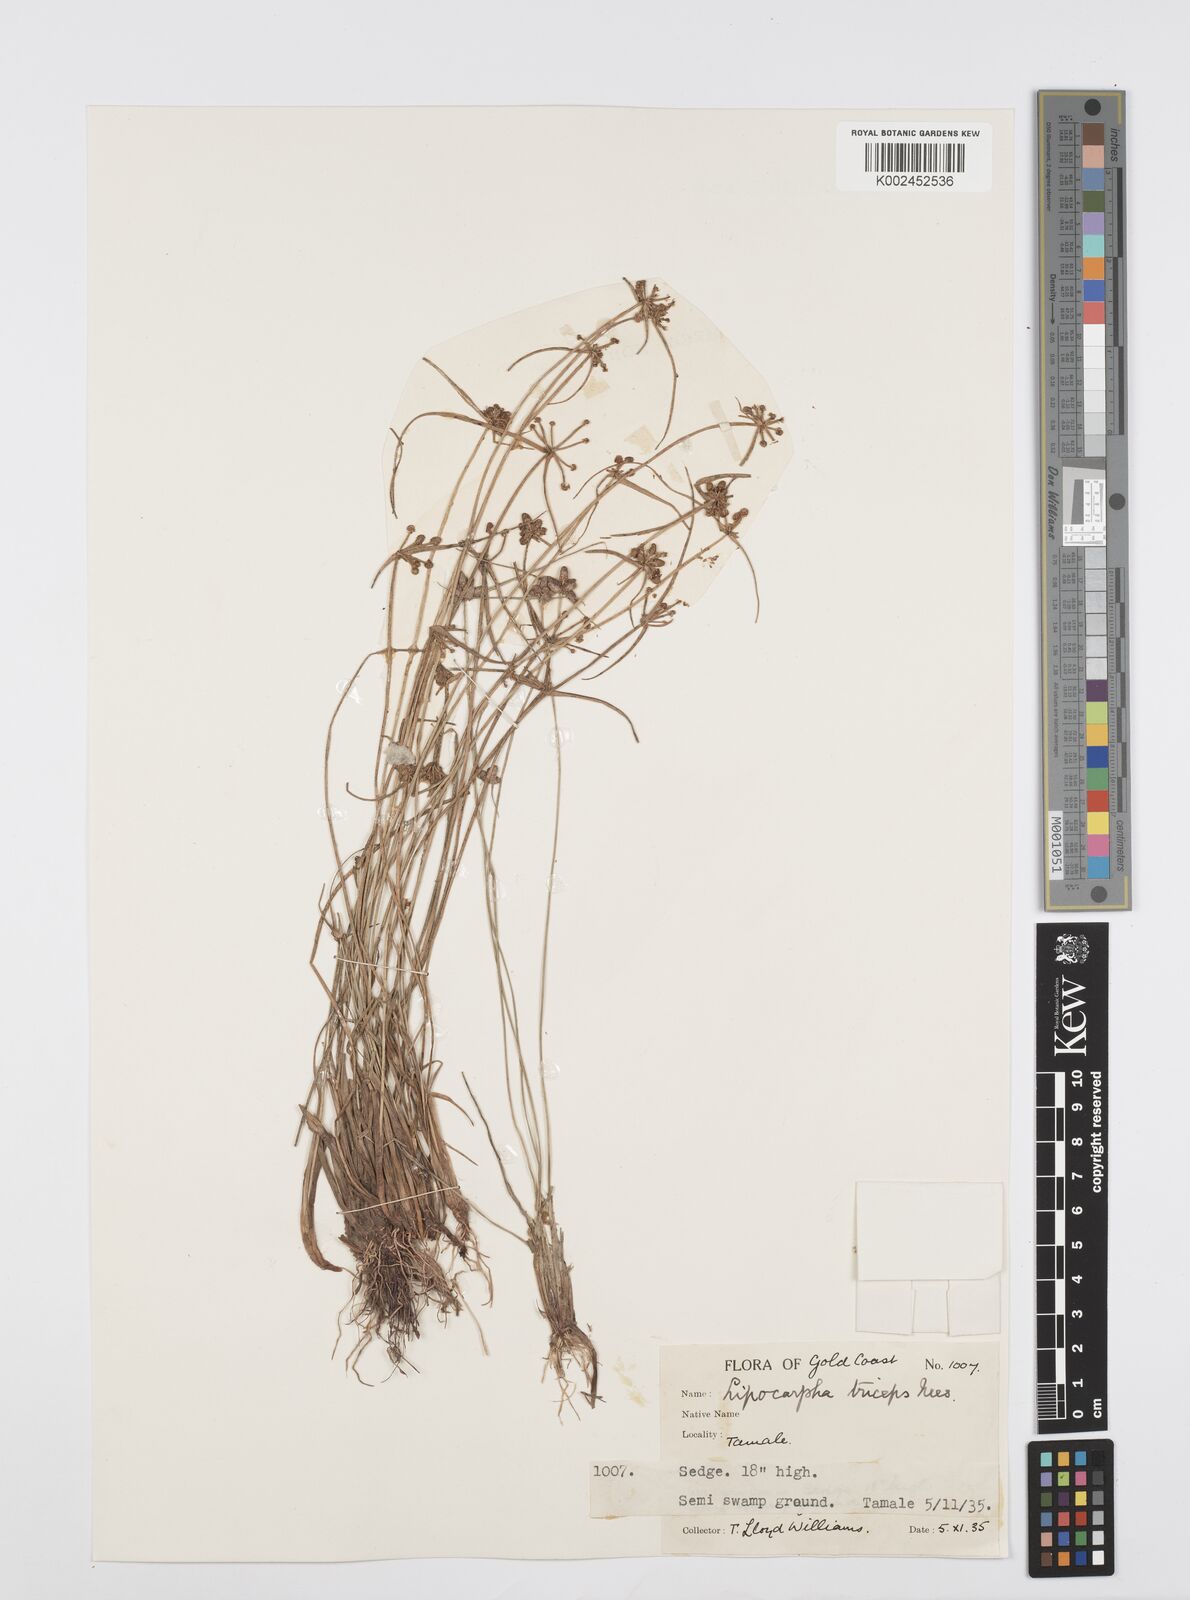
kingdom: Plantae
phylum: Tracheophyta
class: Liliopsida
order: Poales
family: Cyperaceae
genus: Cyperus
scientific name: Cyperus filiformis
